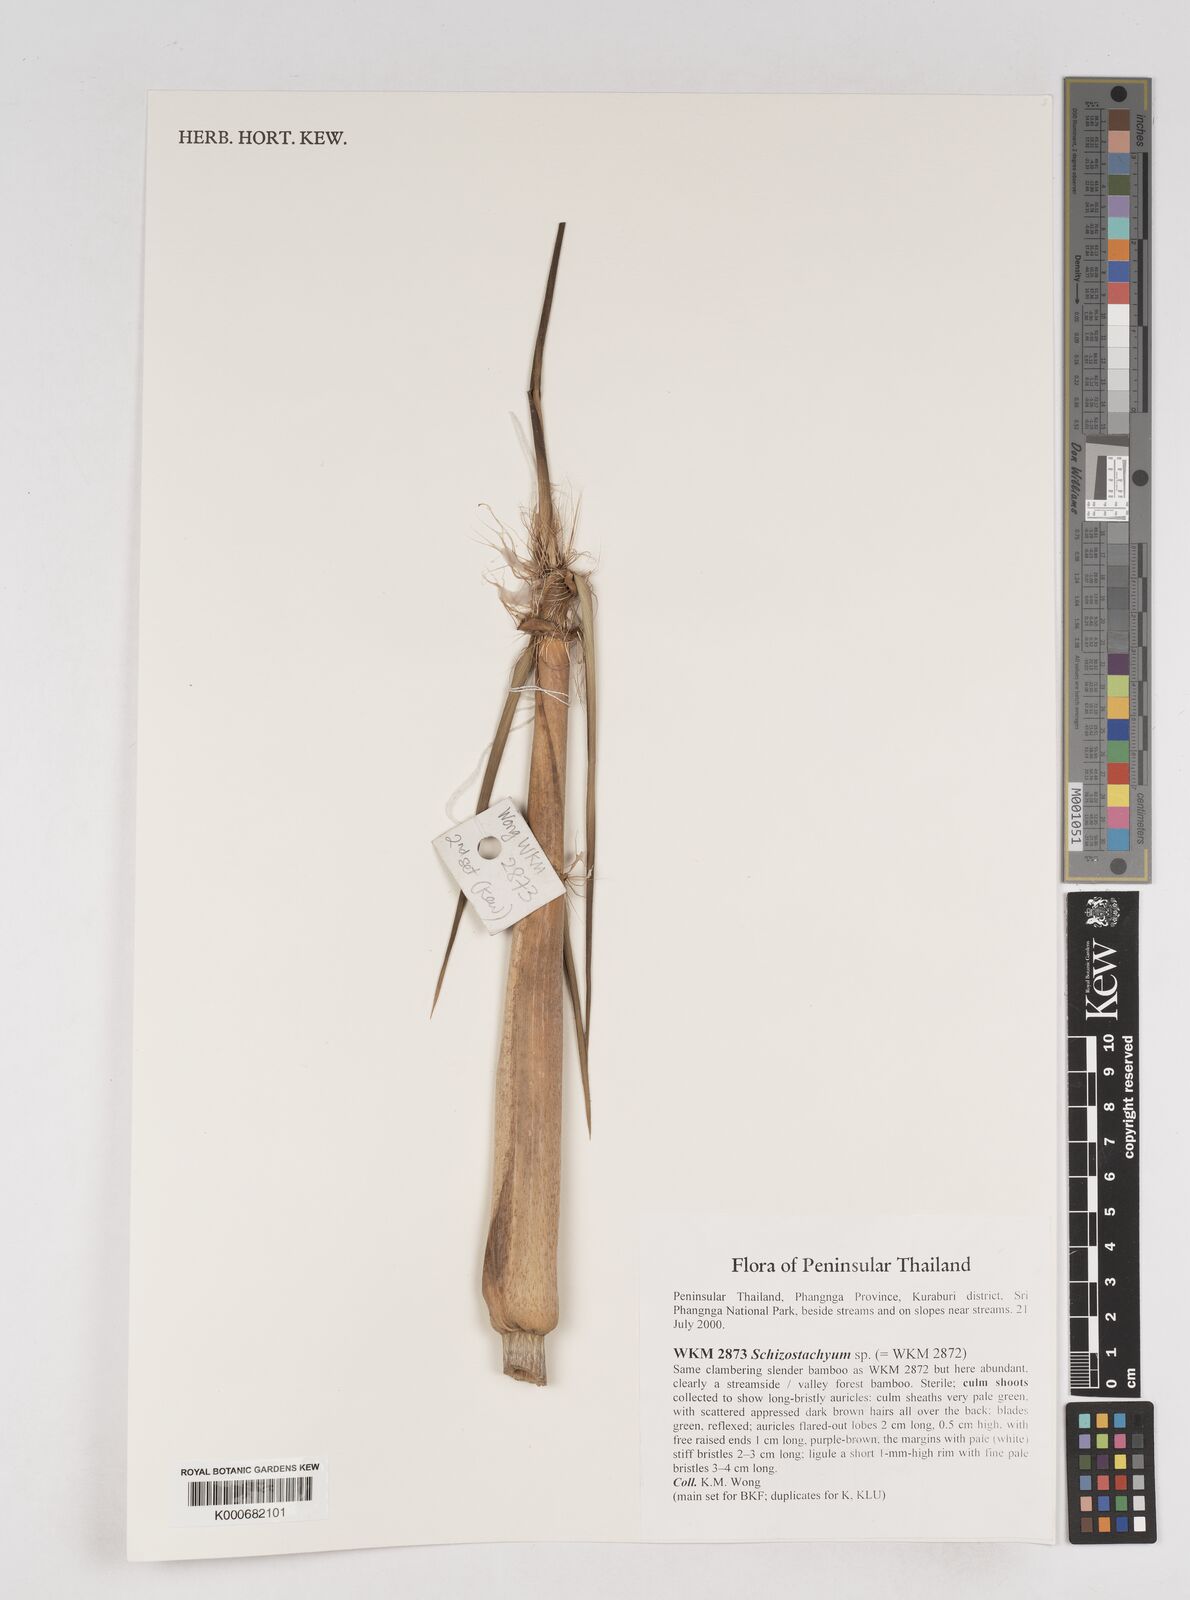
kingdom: Plantae
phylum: Tracheophyta
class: Liliopsida
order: Poales
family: Poaceae
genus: Schizostachyum
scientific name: Schizostachyum
